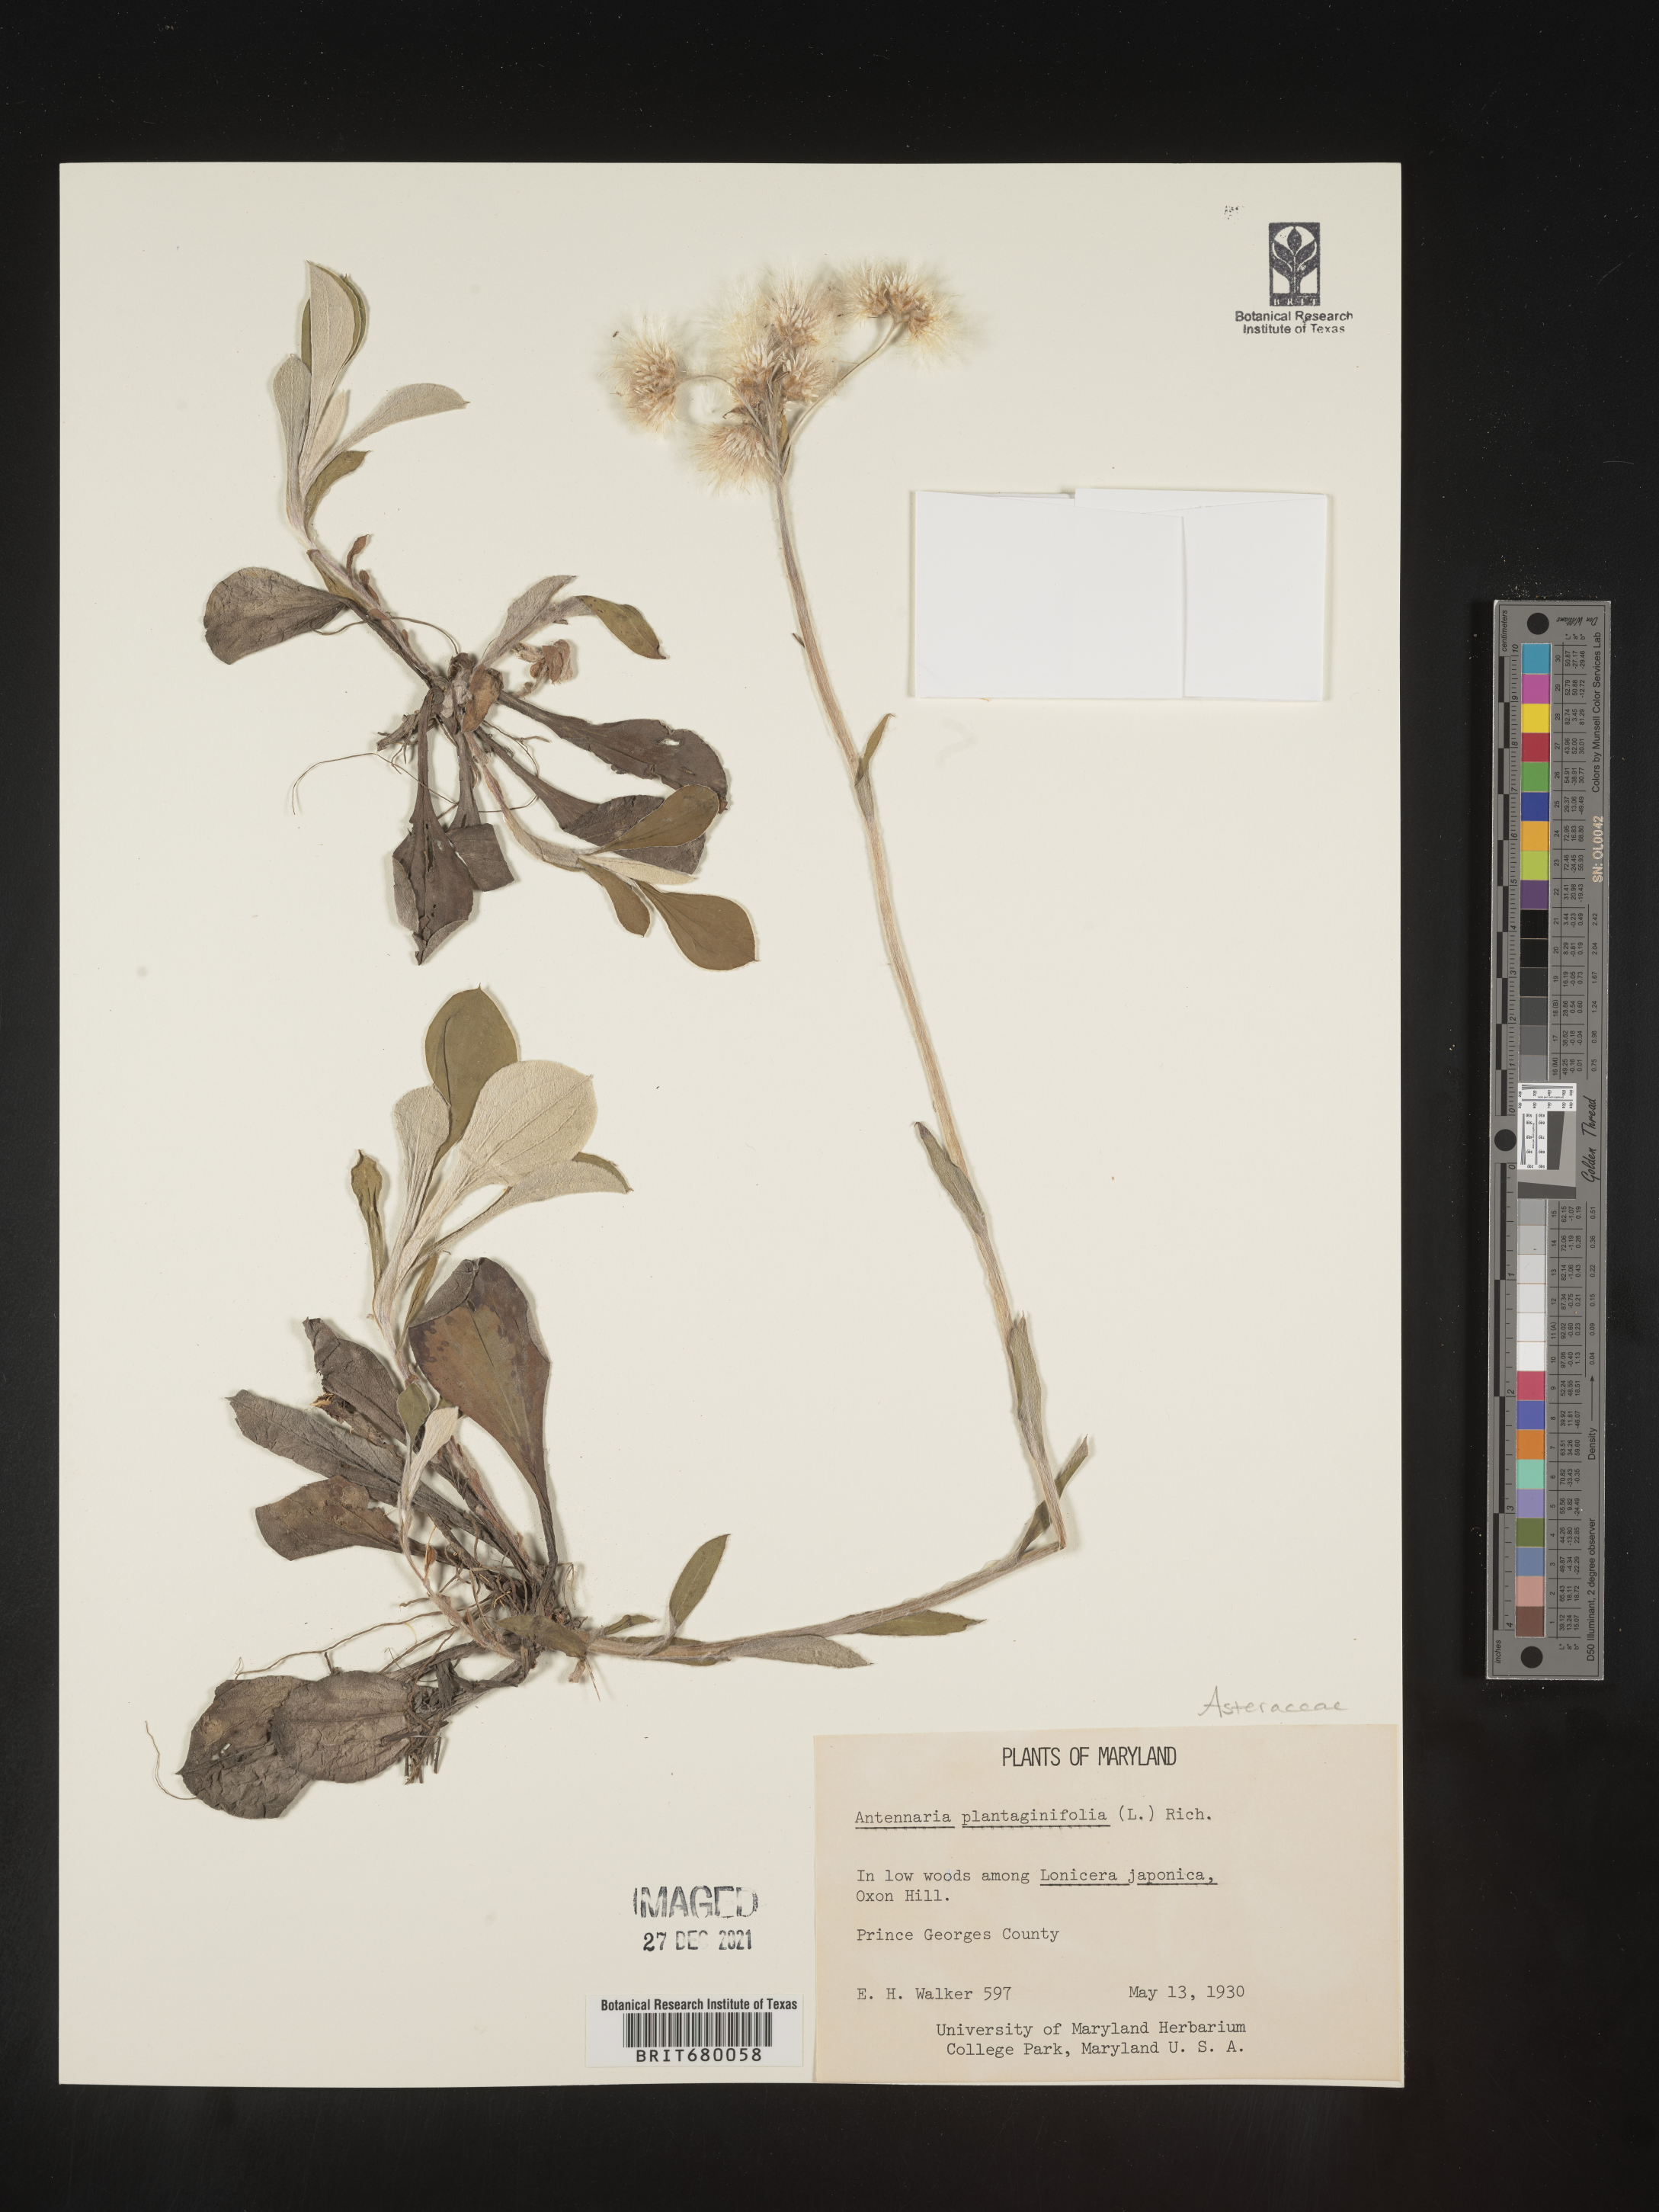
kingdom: Plantae
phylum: Tracheophyta
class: Magnoliopsida
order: Asterales
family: Asteraceae
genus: Antennaria
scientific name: Antennaria plantaginifolia
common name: Plantain-leaved pussytoes
